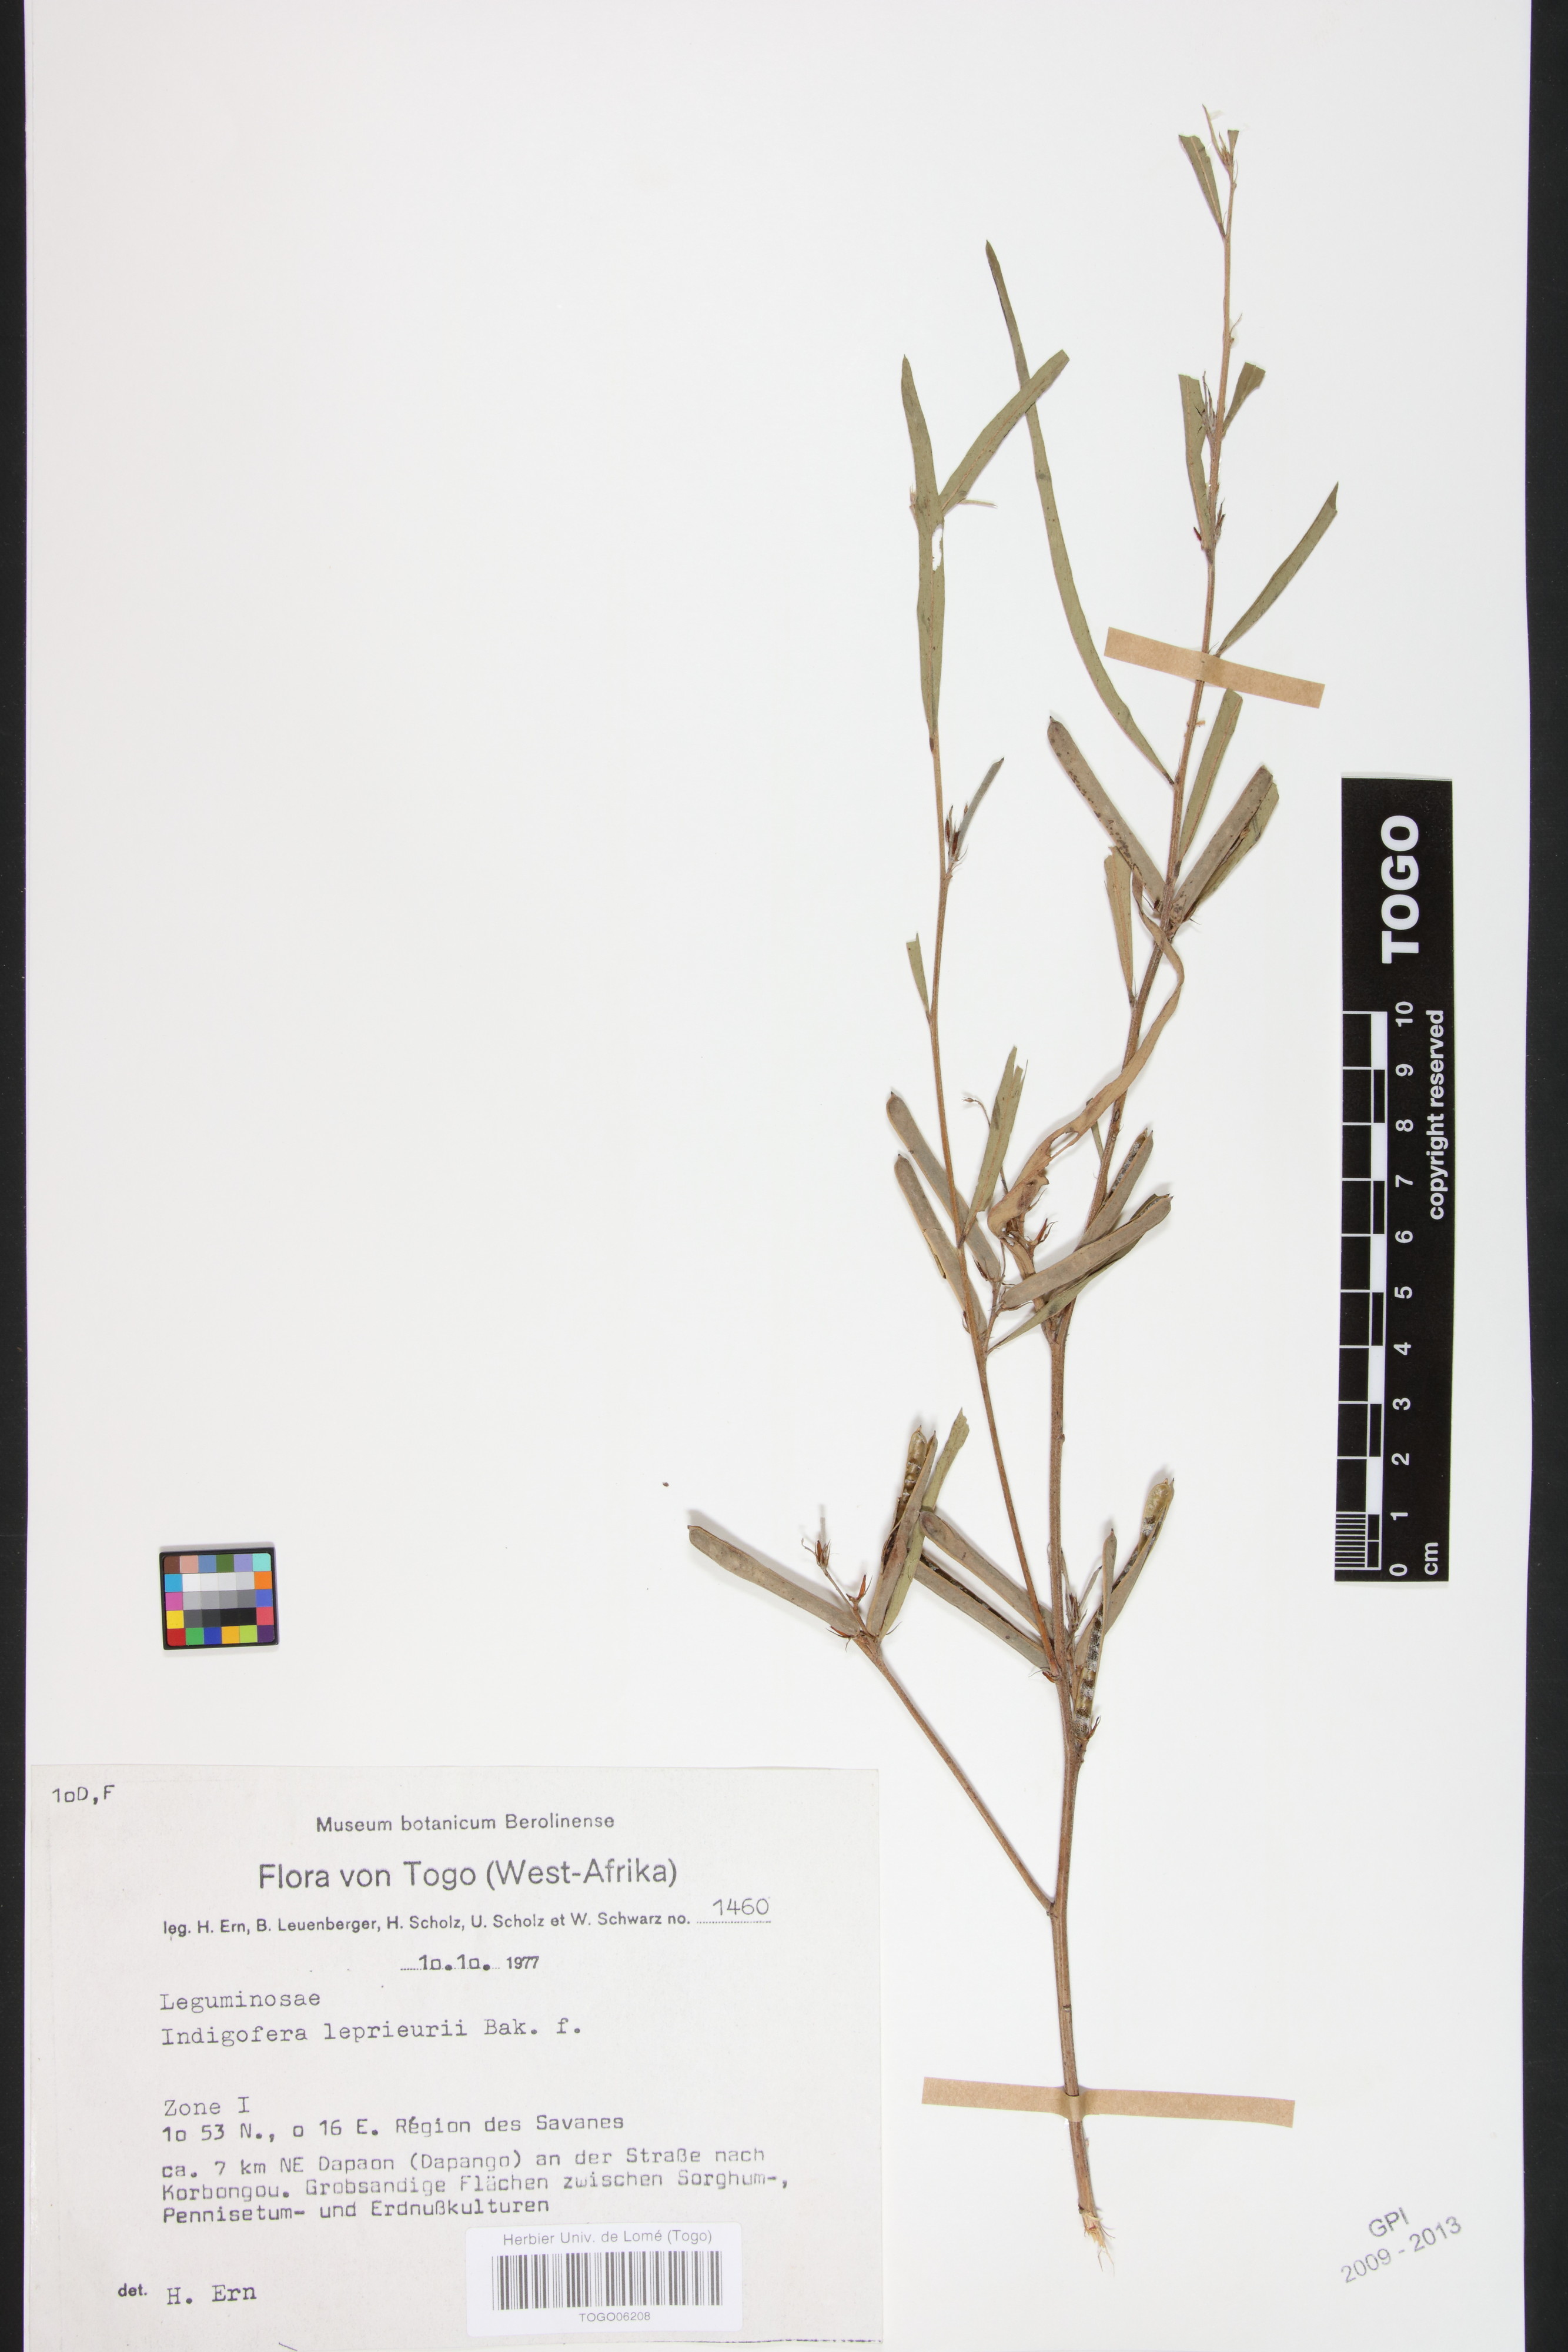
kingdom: Plantae
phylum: Tracheophyta
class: Magnoliopsida
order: Fabales
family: Fabaceae
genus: Indigofera
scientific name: Indigofera leprieurii
